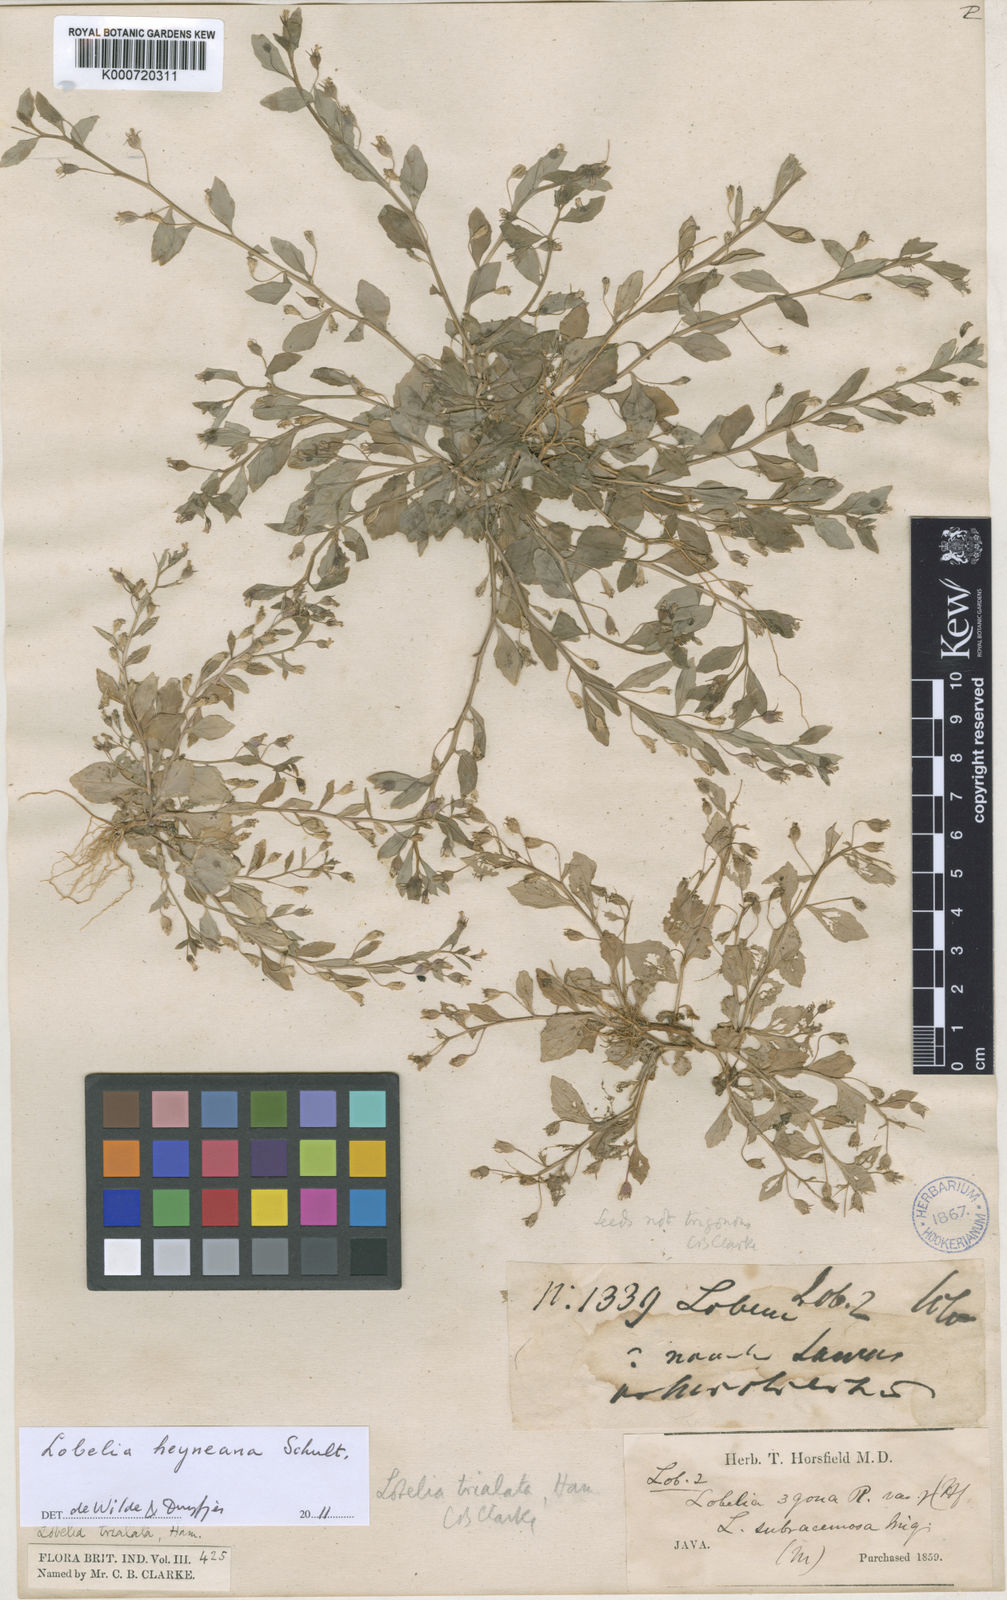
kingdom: Plantae
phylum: Tracheophyta
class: Magnoliopsida
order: Asterales
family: Campanulaceae
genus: Lobelia
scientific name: Lobelia heyneana
